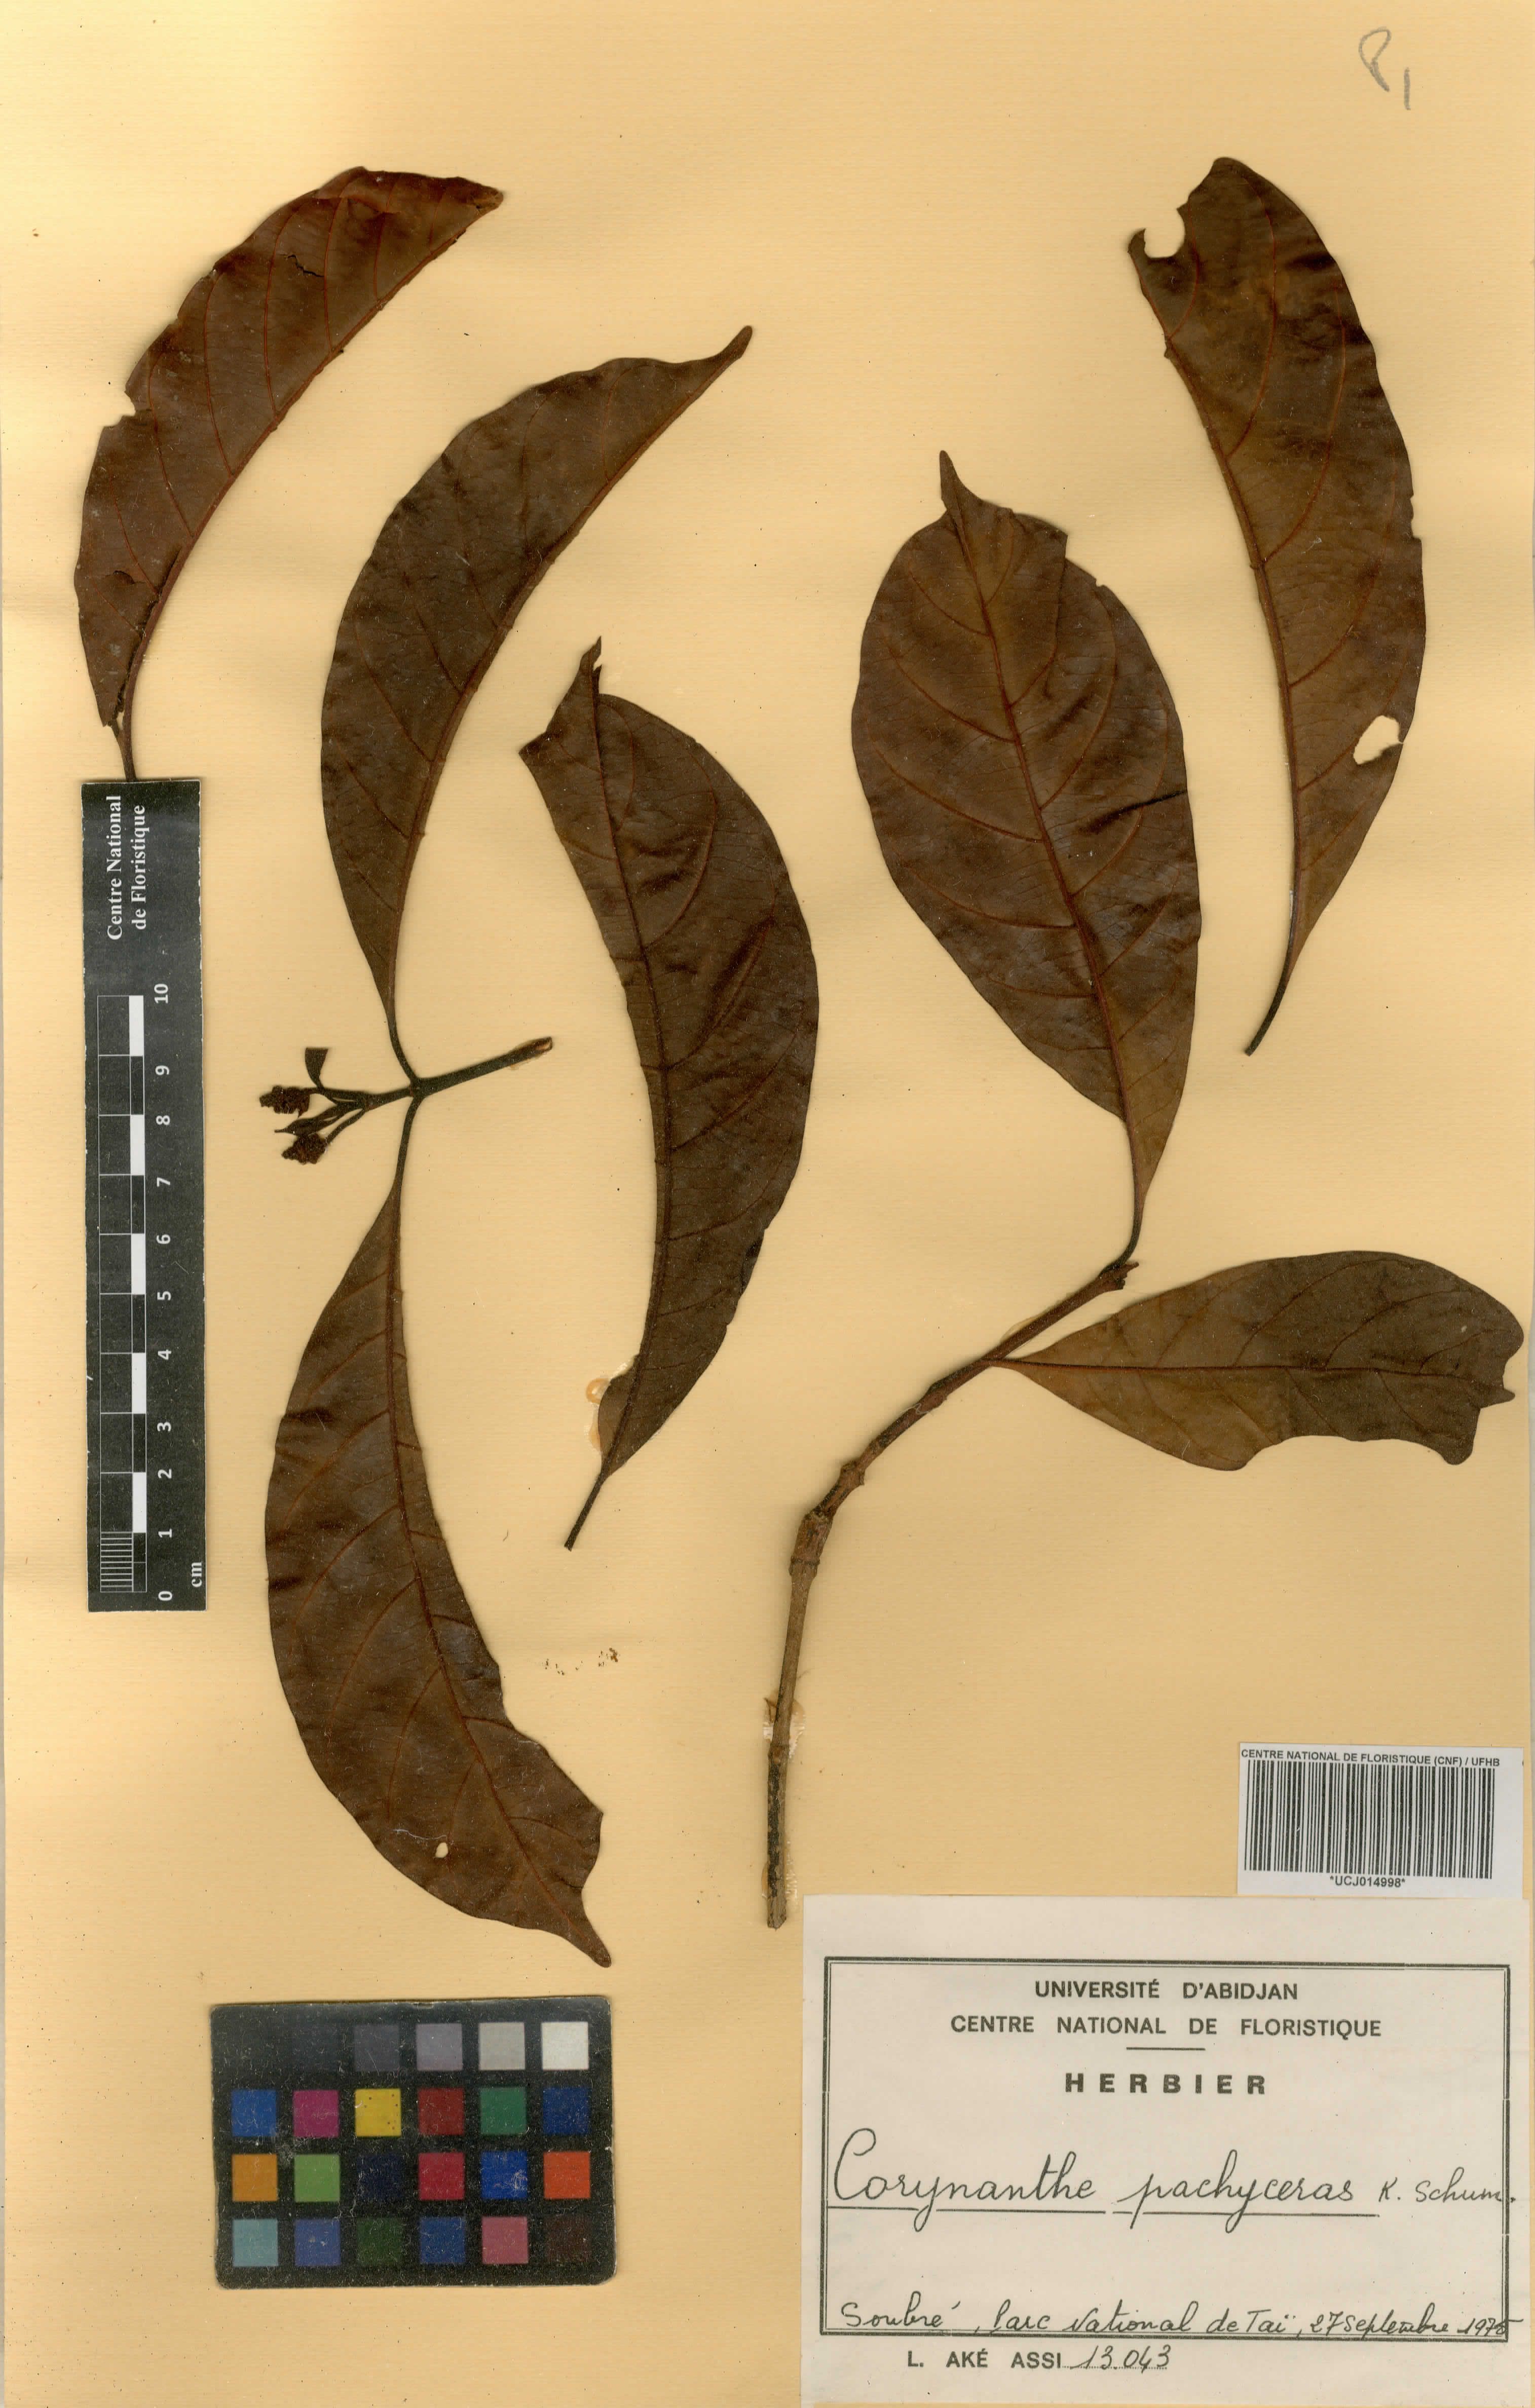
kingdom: Plantae
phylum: Tracheophyta
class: Magnoliopsida
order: Gentianales
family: Rubiaceae
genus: Corynanthe
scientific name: Corynanthe pachyceras
